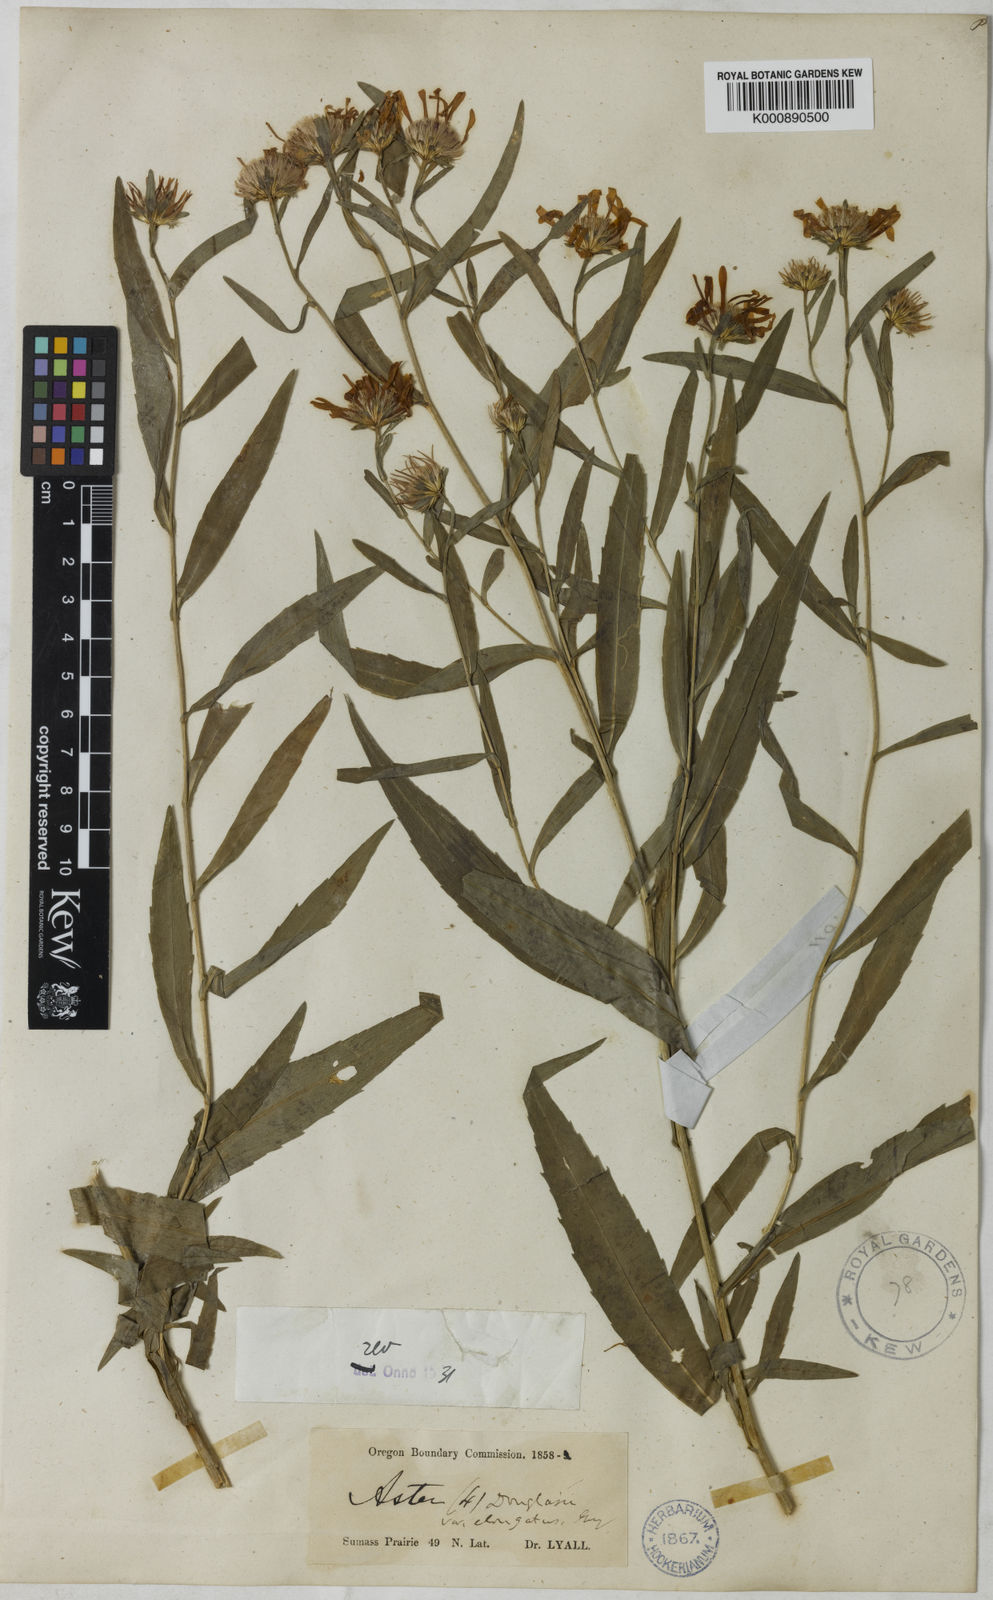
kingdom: Plantae
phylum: Tracheophyta
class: Magnoliopsida
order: Asterales
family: Asteraceae
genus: Symphyotrichum
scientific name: Symphyotrichum subspicatum
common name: Douglas' aster
